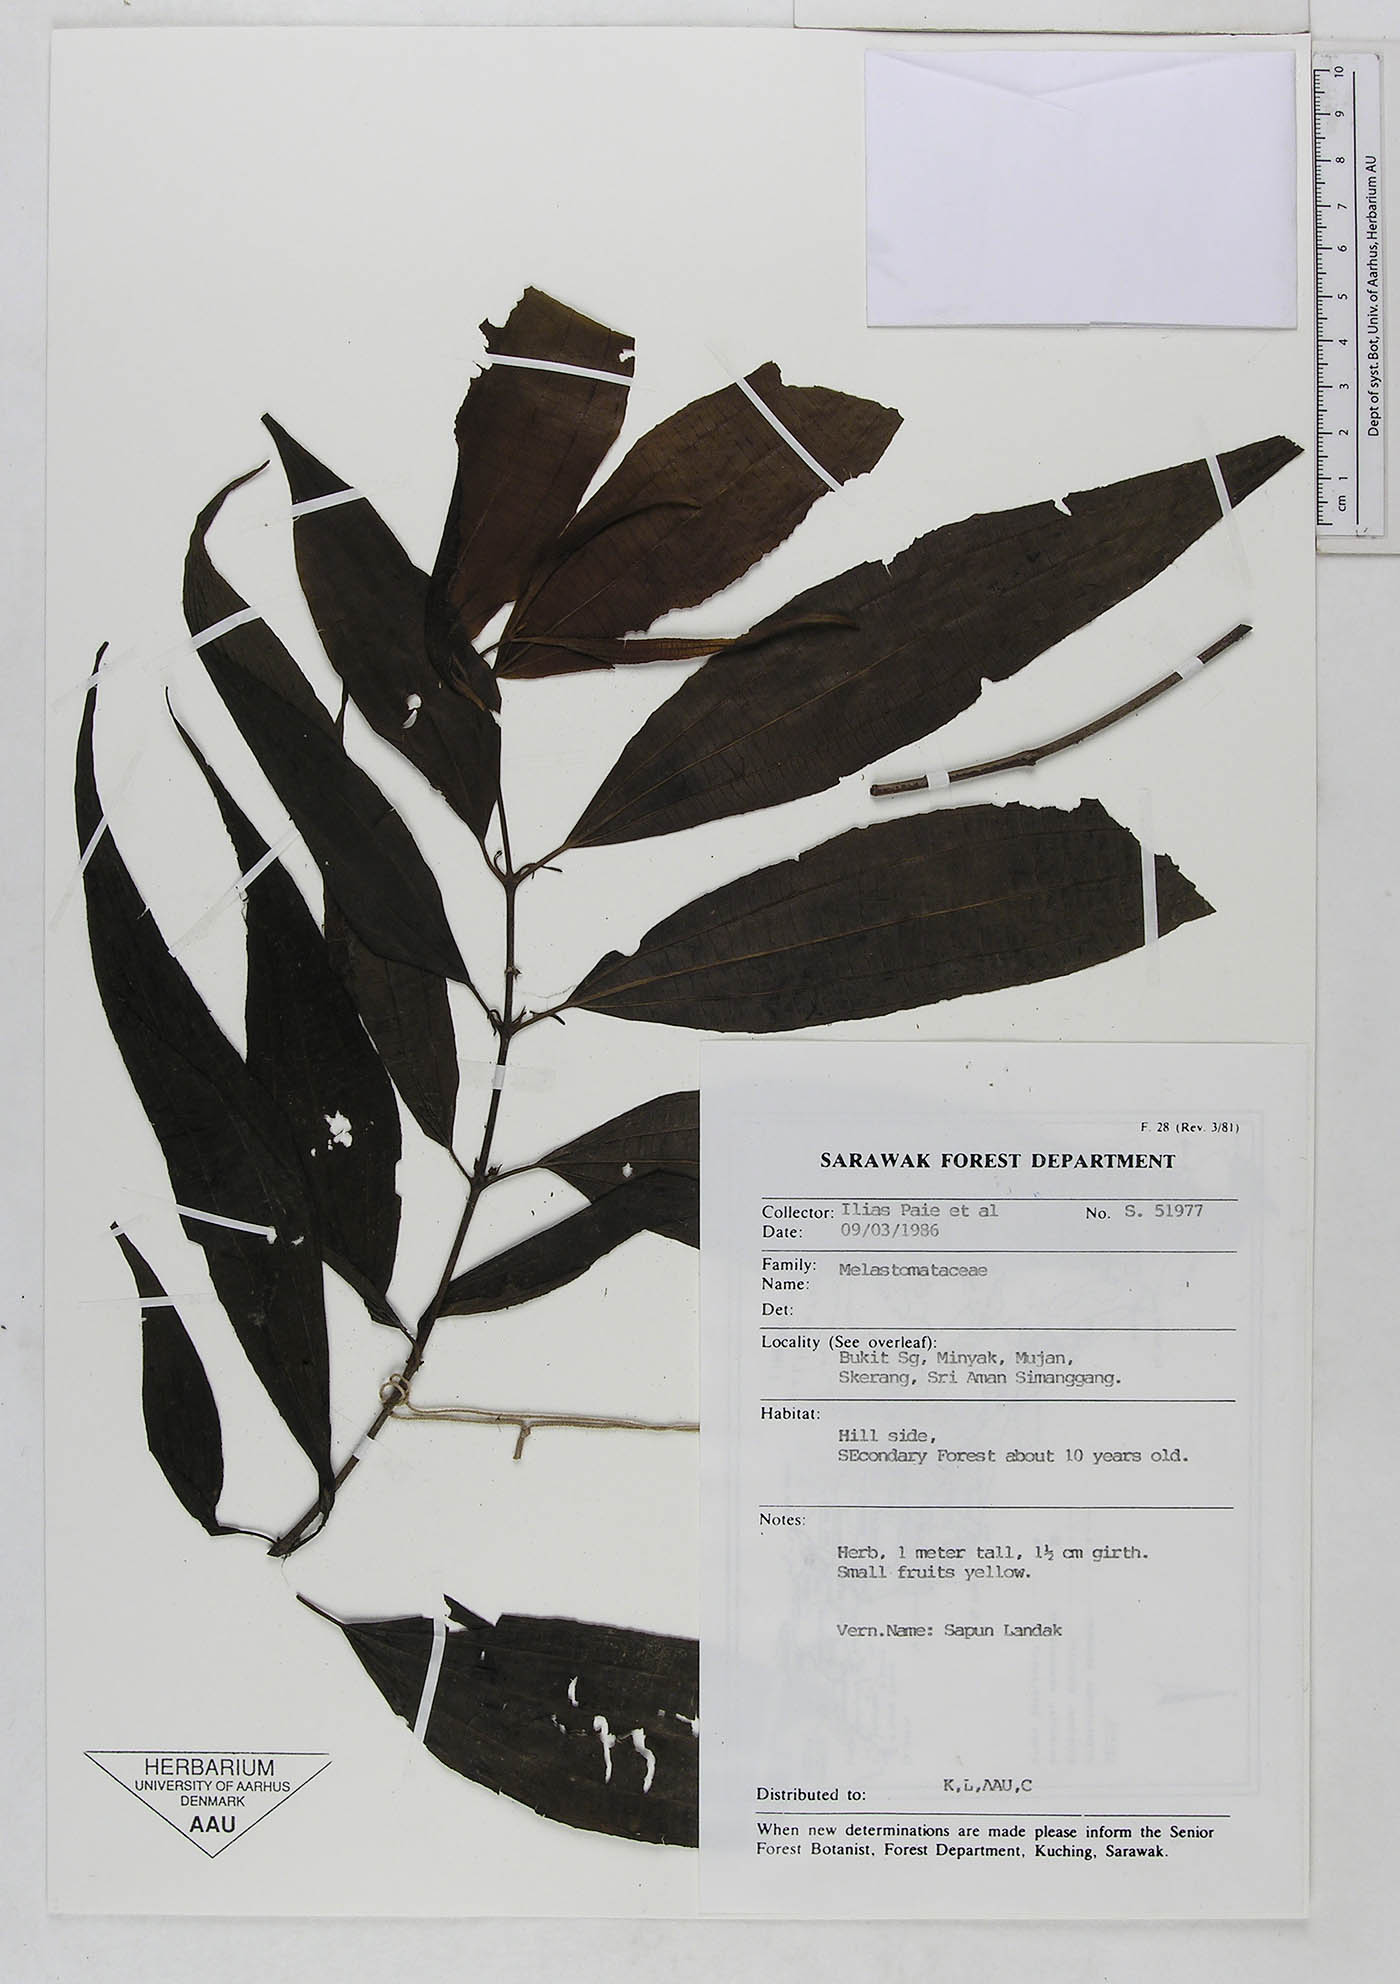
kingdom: Plantae
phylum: Tracheophyta
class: Magnoliopsida
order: Myrtales
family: Melastomataceae
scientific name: Melastomataceae
